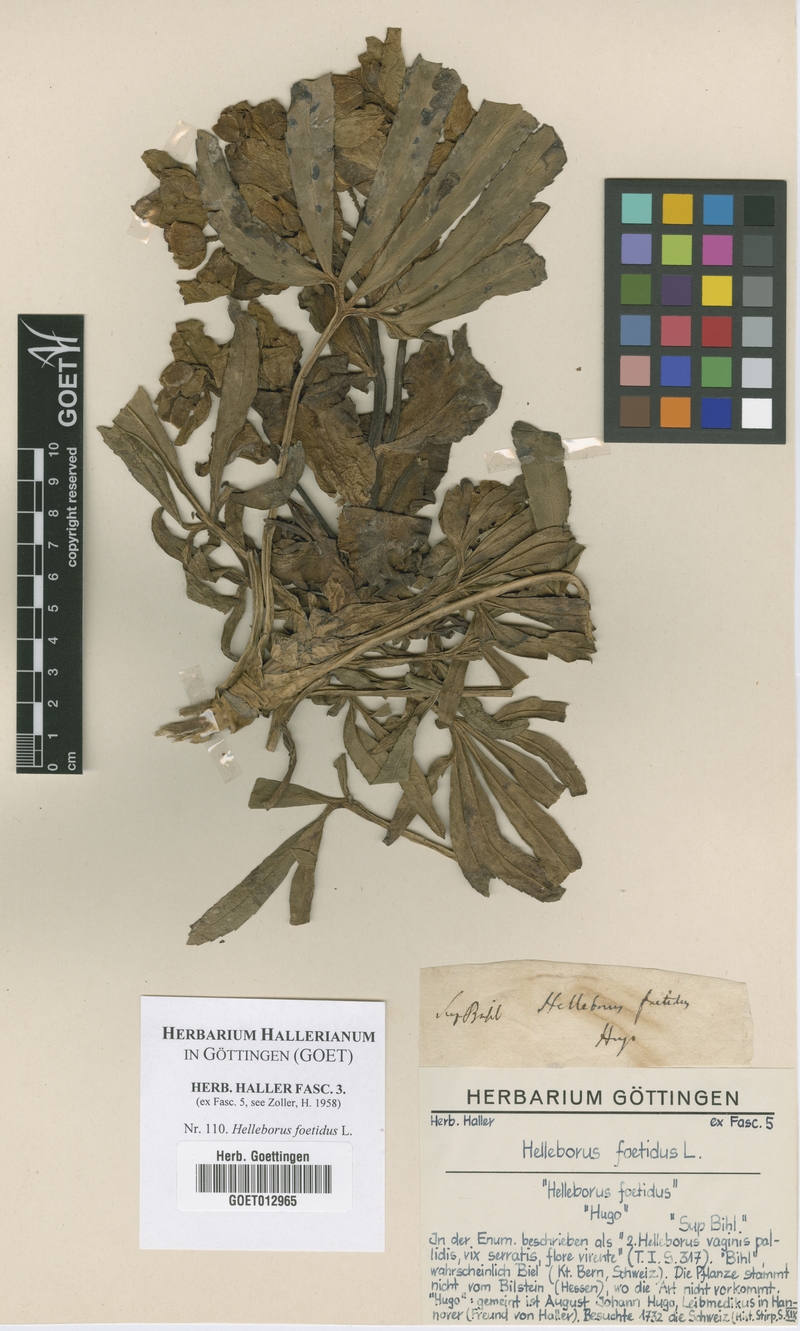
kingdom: Plantae
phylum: Tracheophyta
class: Magnoliopsida
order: Ranunculales
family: Ranunculaceae
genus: Helleborus
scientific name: Helleborus foetidus
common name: Stinking hellebore
